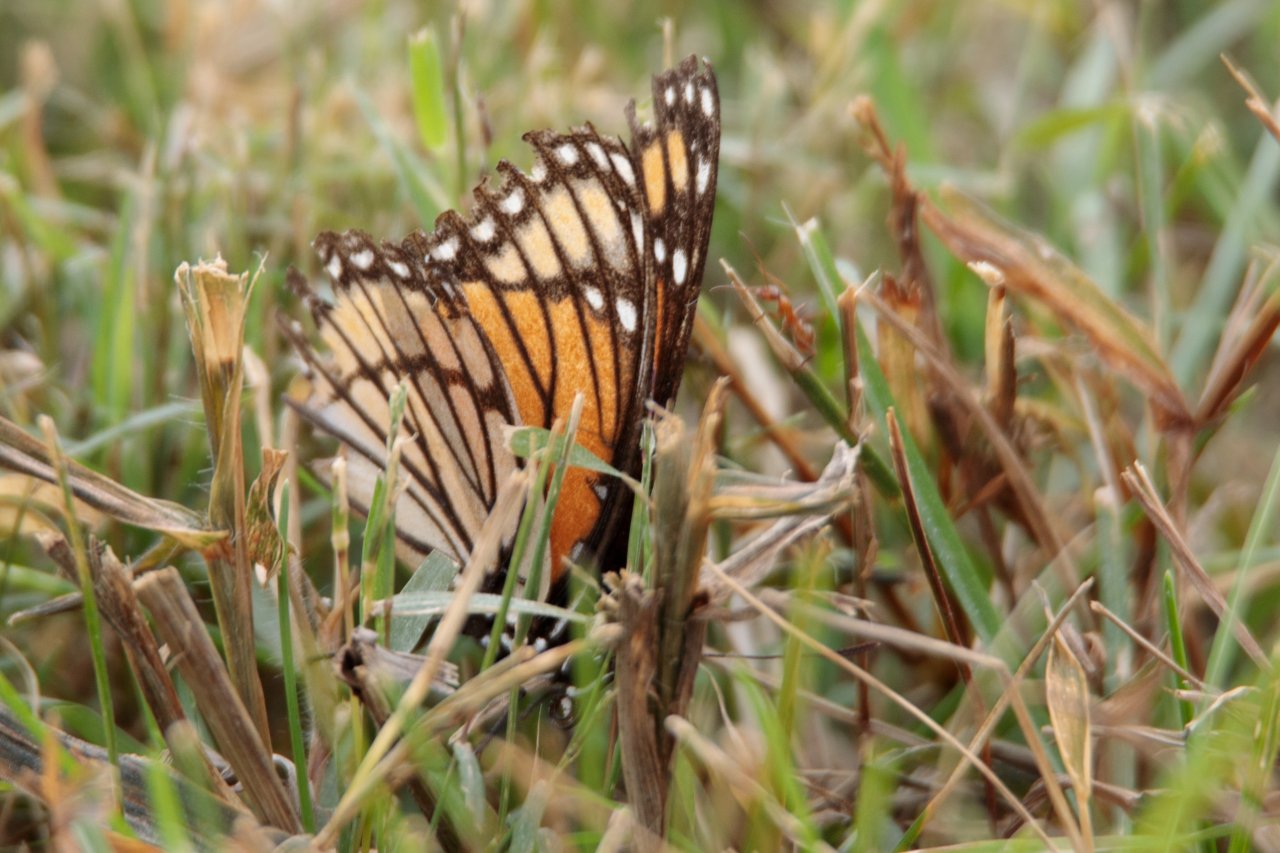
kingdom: Animalia
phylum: Arthropoda
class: Insecta
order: Lepidoptera
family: Nymphalidae
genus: Limenitis
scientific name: Limenitis archippus
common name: Viceroy
